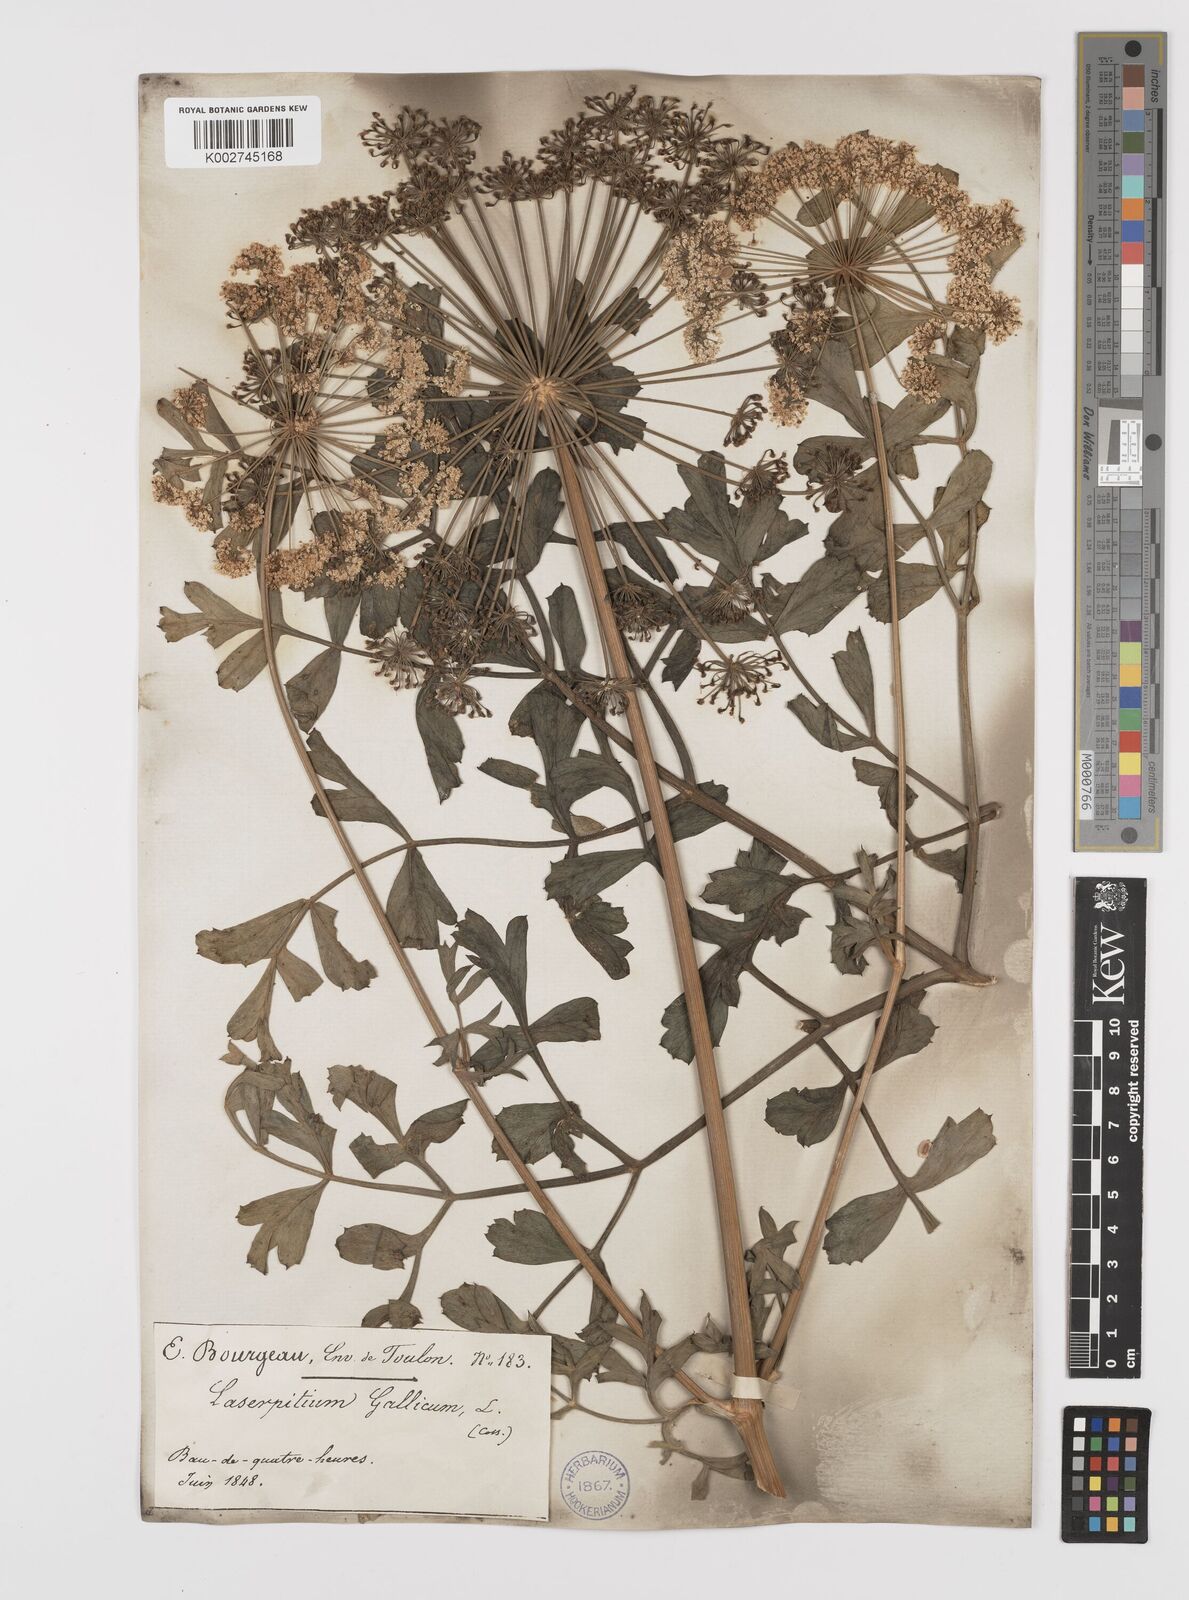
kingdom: Plantae
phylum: Tracheophyta
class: Magnoliopsida
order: Apiales
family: Apiaceae
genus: Laserpitium
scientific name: Laserpitium gallicum
